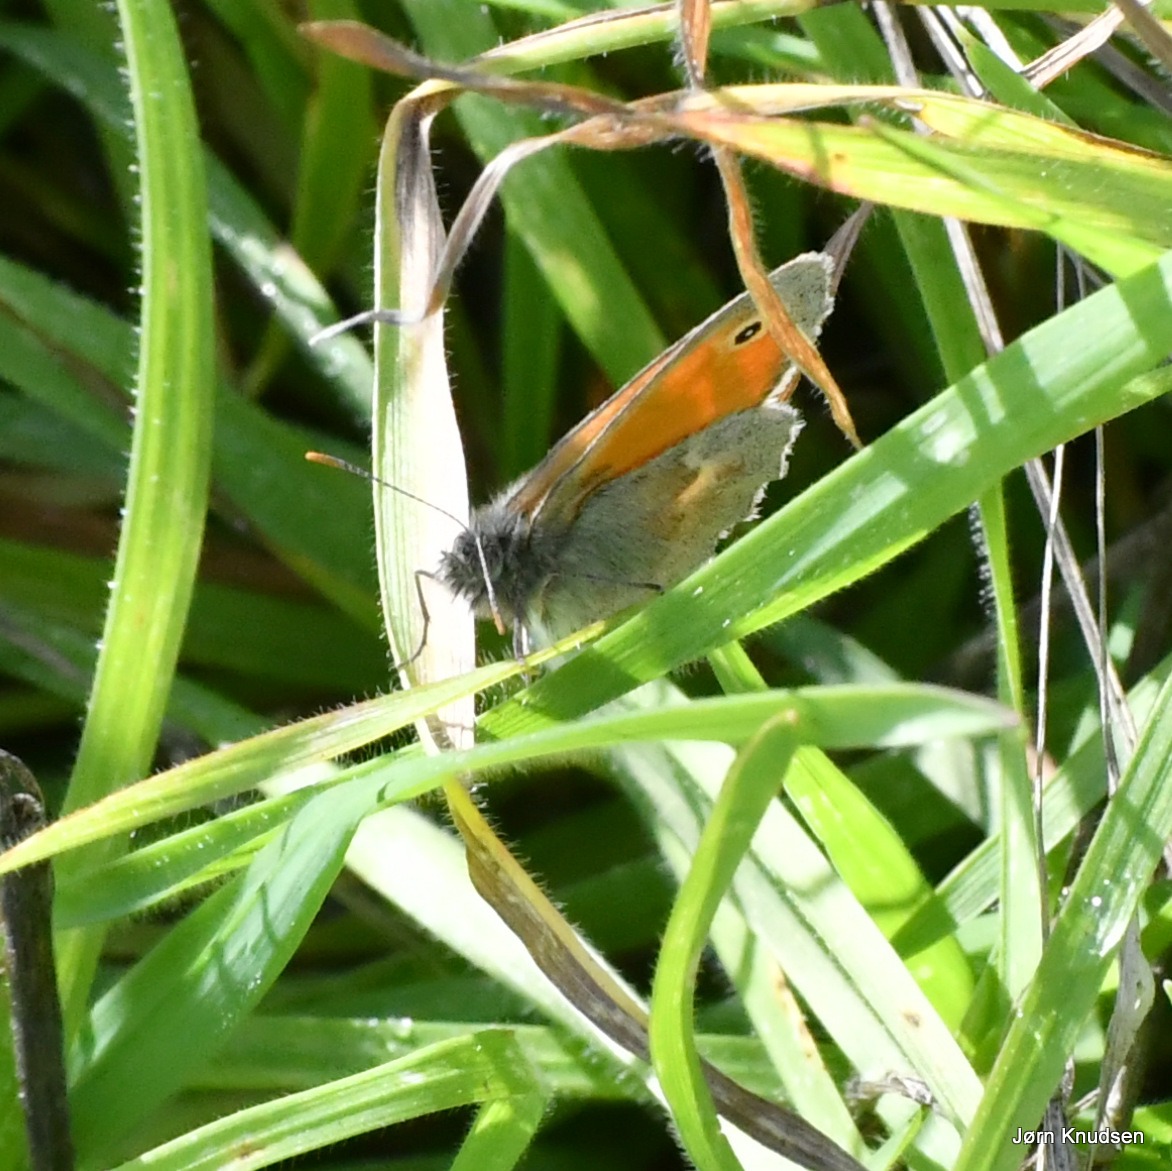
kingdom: Animalia
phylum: Arthropoda
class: Insecta
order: Lepidoptera
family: Nymphalidae
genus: Coenonympha
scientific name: Coenonympha pamphilus
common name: Okkergul randøje
